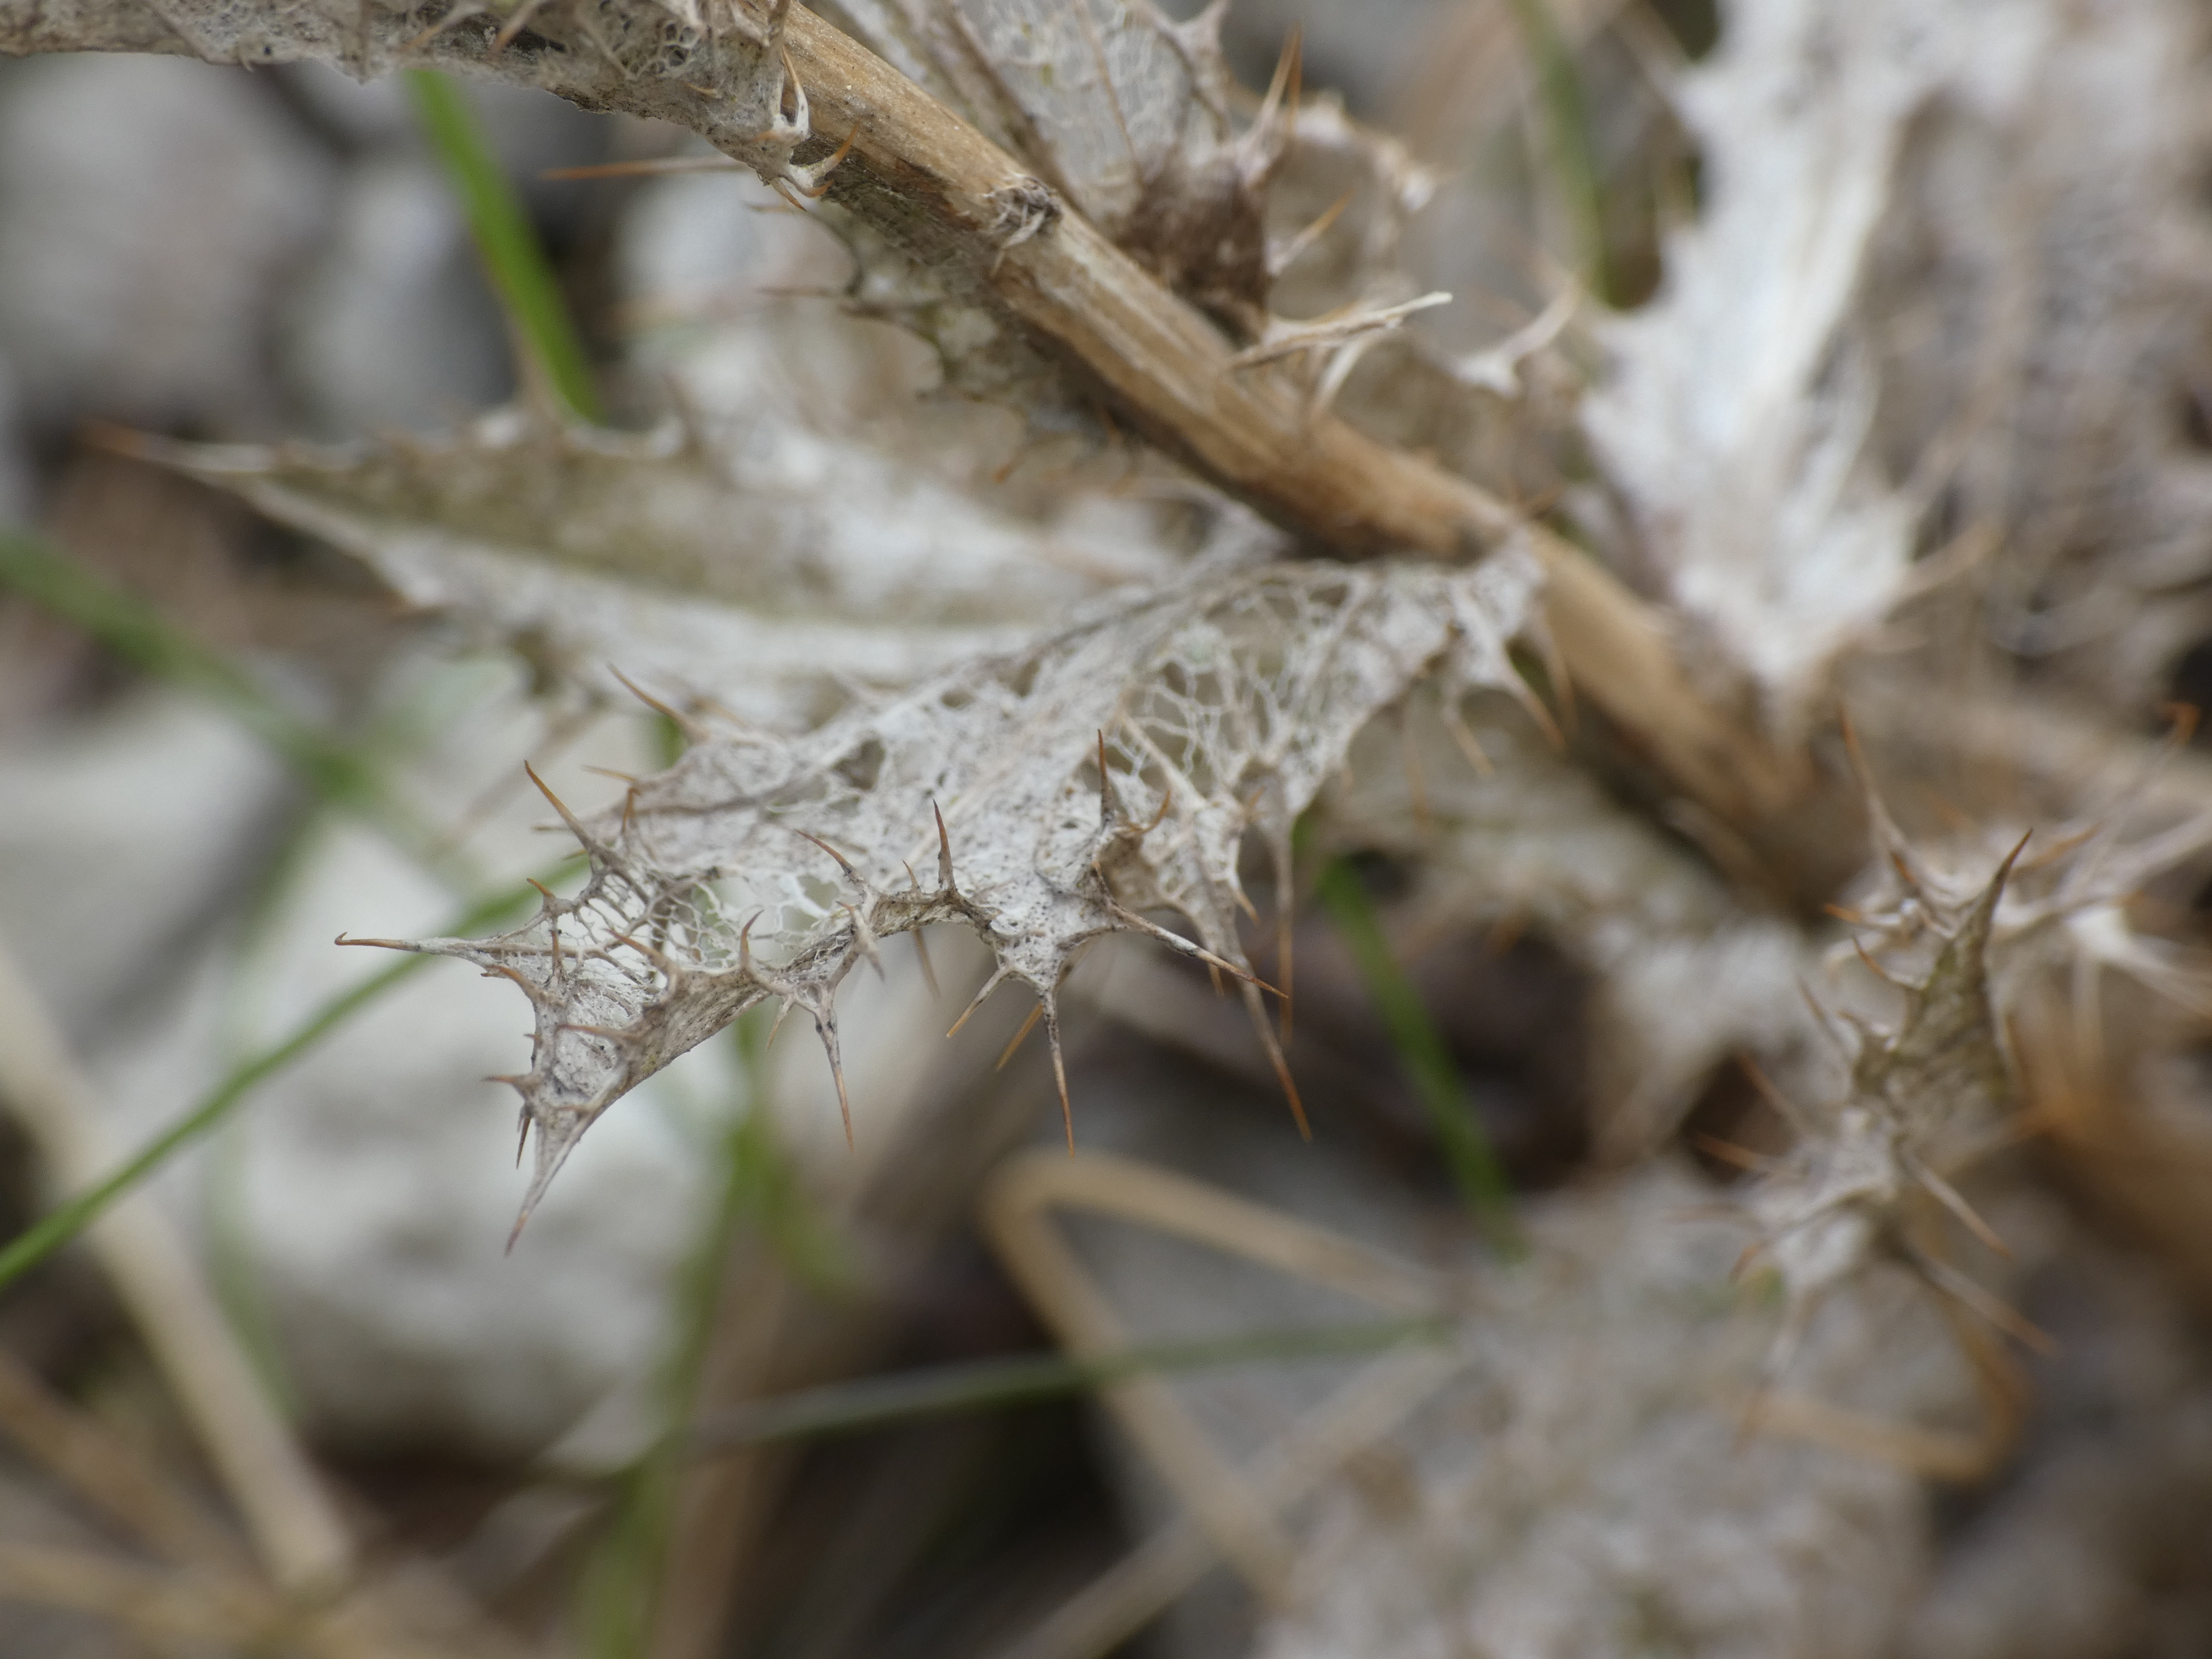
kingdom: Plantae
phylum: Tracheophyta
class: Magnoliopsida
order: Asterales
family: Asteraceae
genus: Carlina
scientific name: Carlina vulgaris
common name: Bakketidsel
